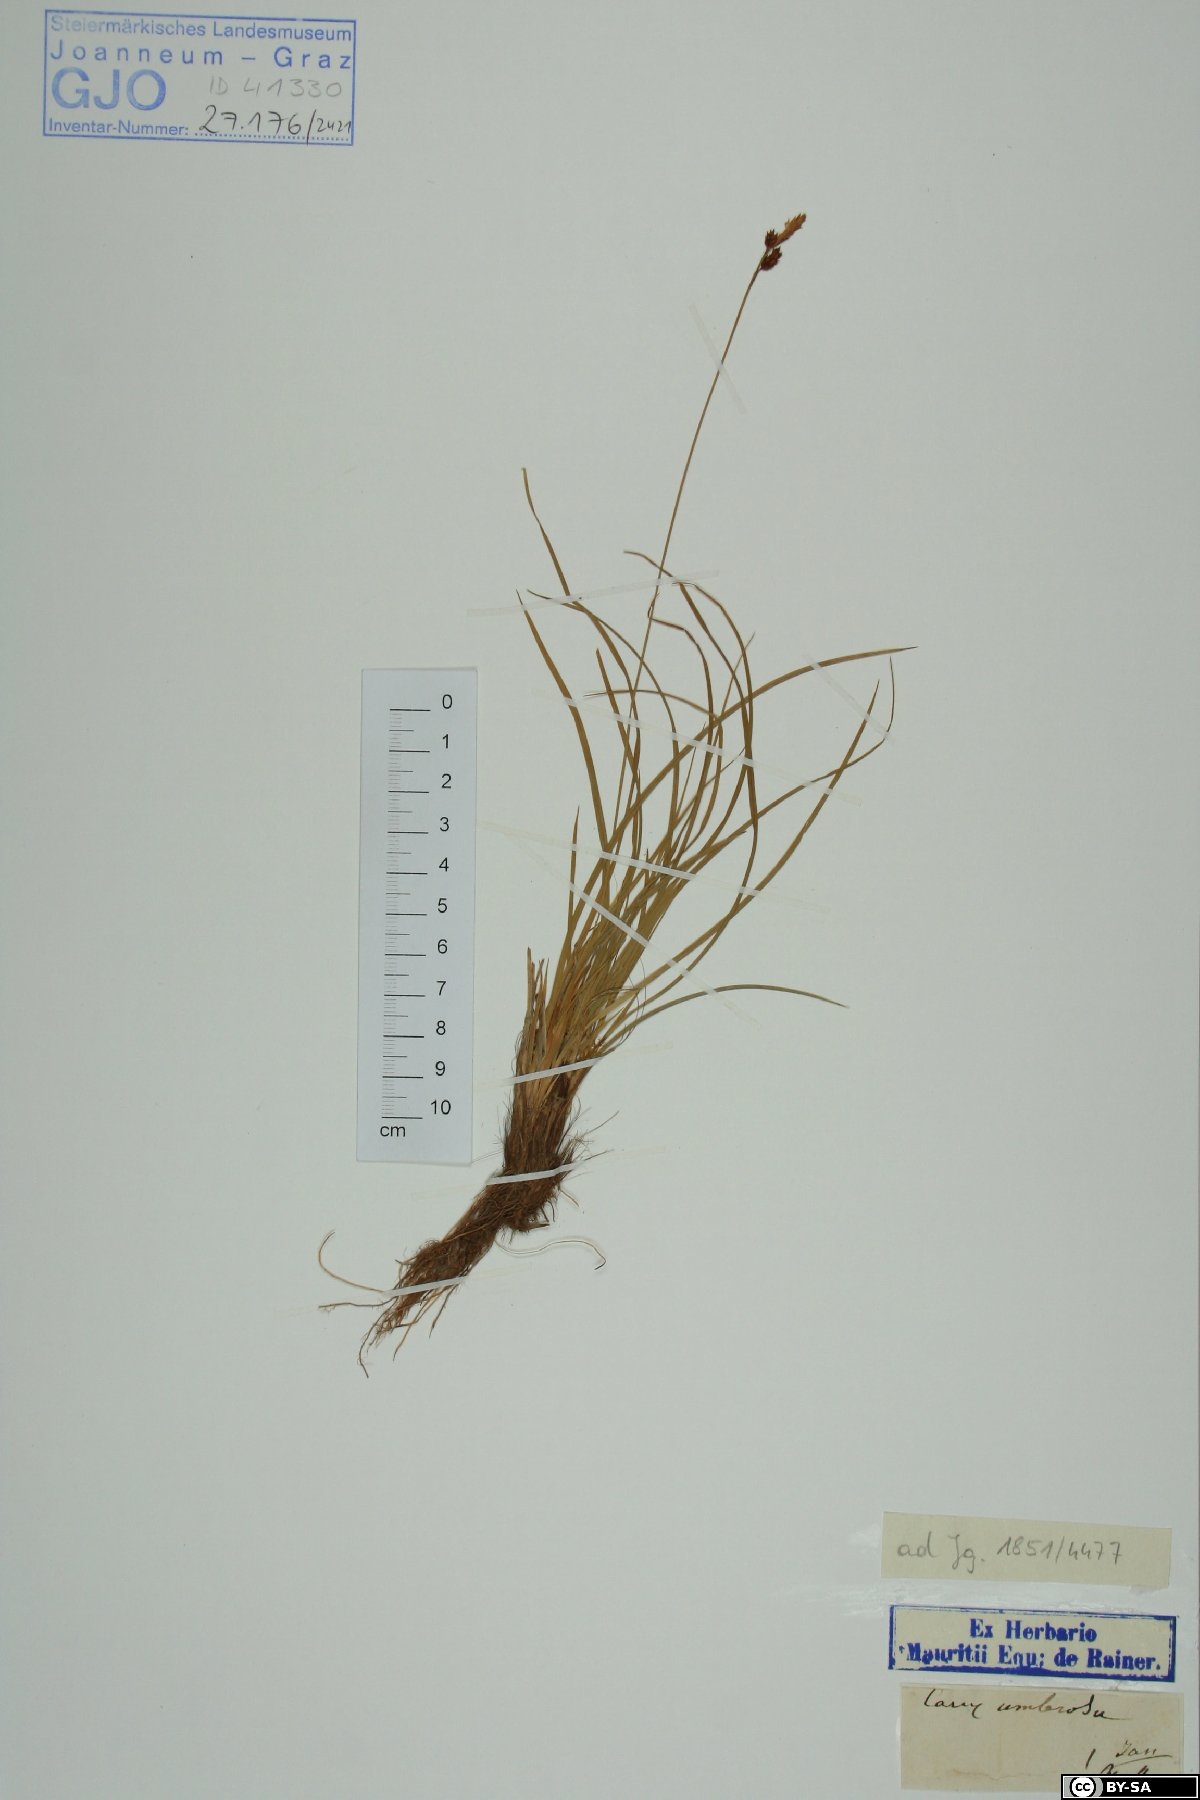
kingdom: Plantae
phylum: Tracheophyta
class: Liliopsida
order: Poales
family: Cyperaceae
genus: Carex
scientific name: Carex umbrosa
